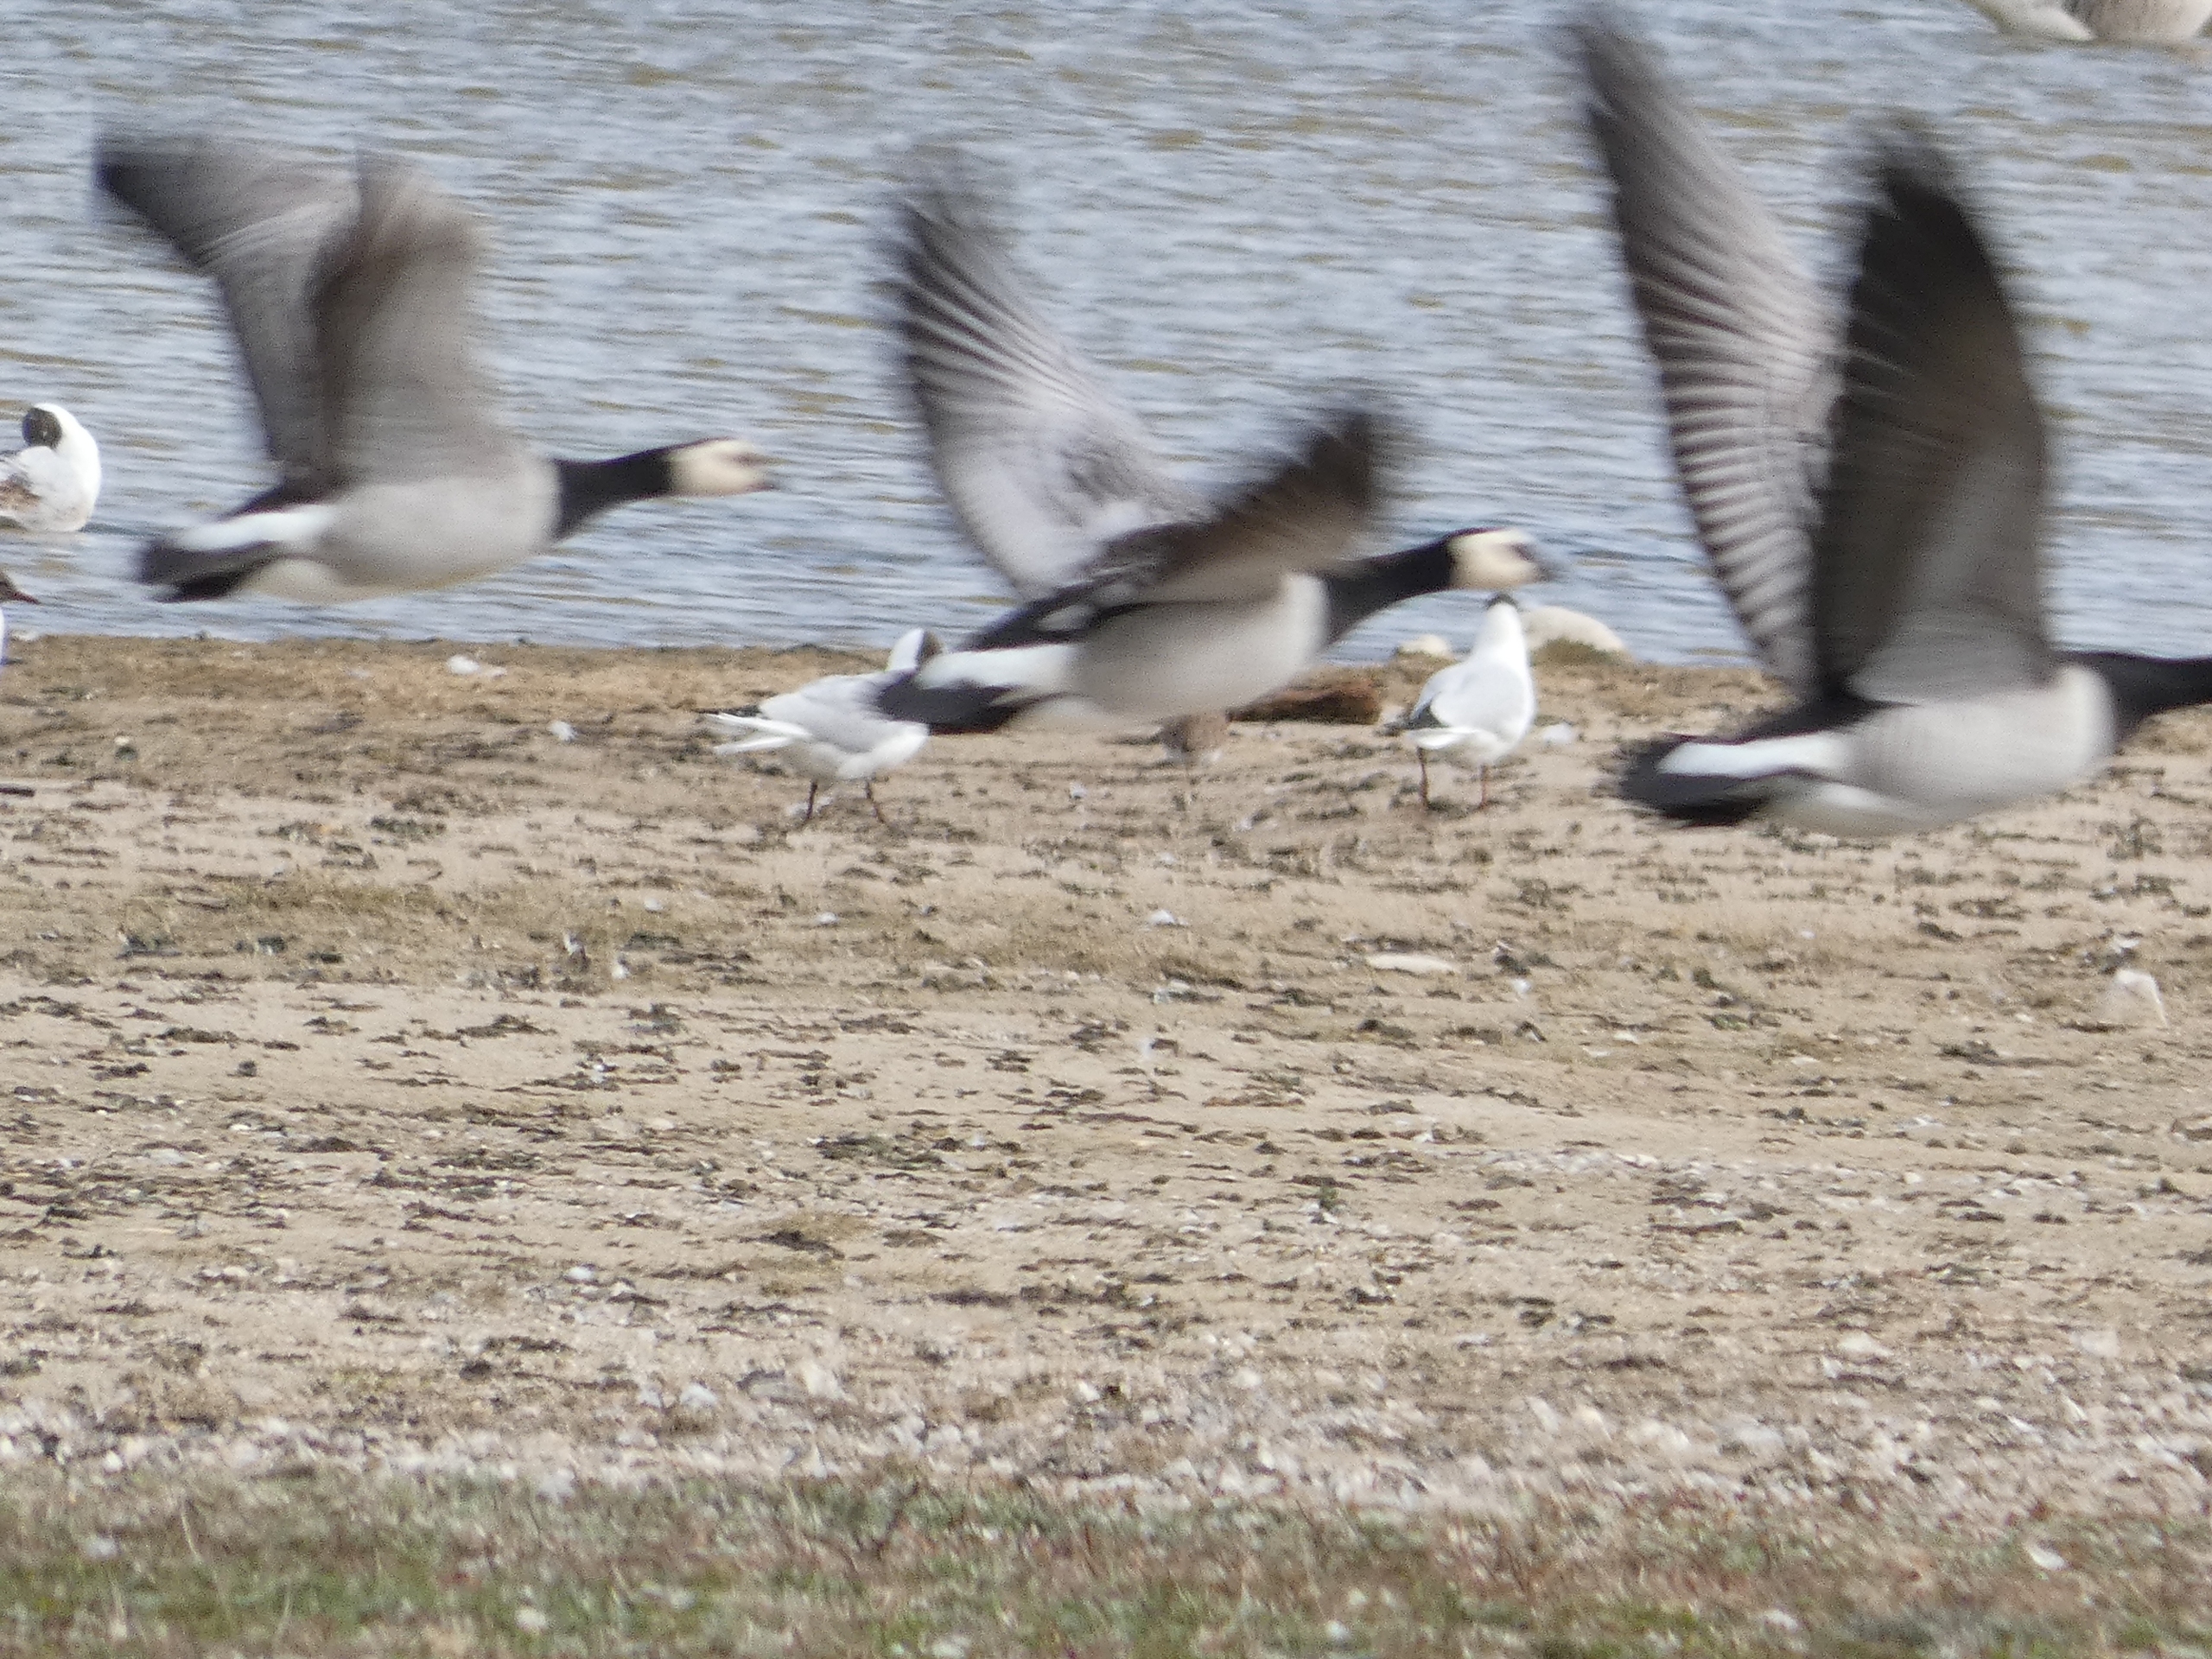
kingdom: Animalia
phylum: Chordata
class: Aves
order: Anseriformes
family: Anatidae
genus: Branta
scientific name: Branta leucopsis
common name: Bramgås
